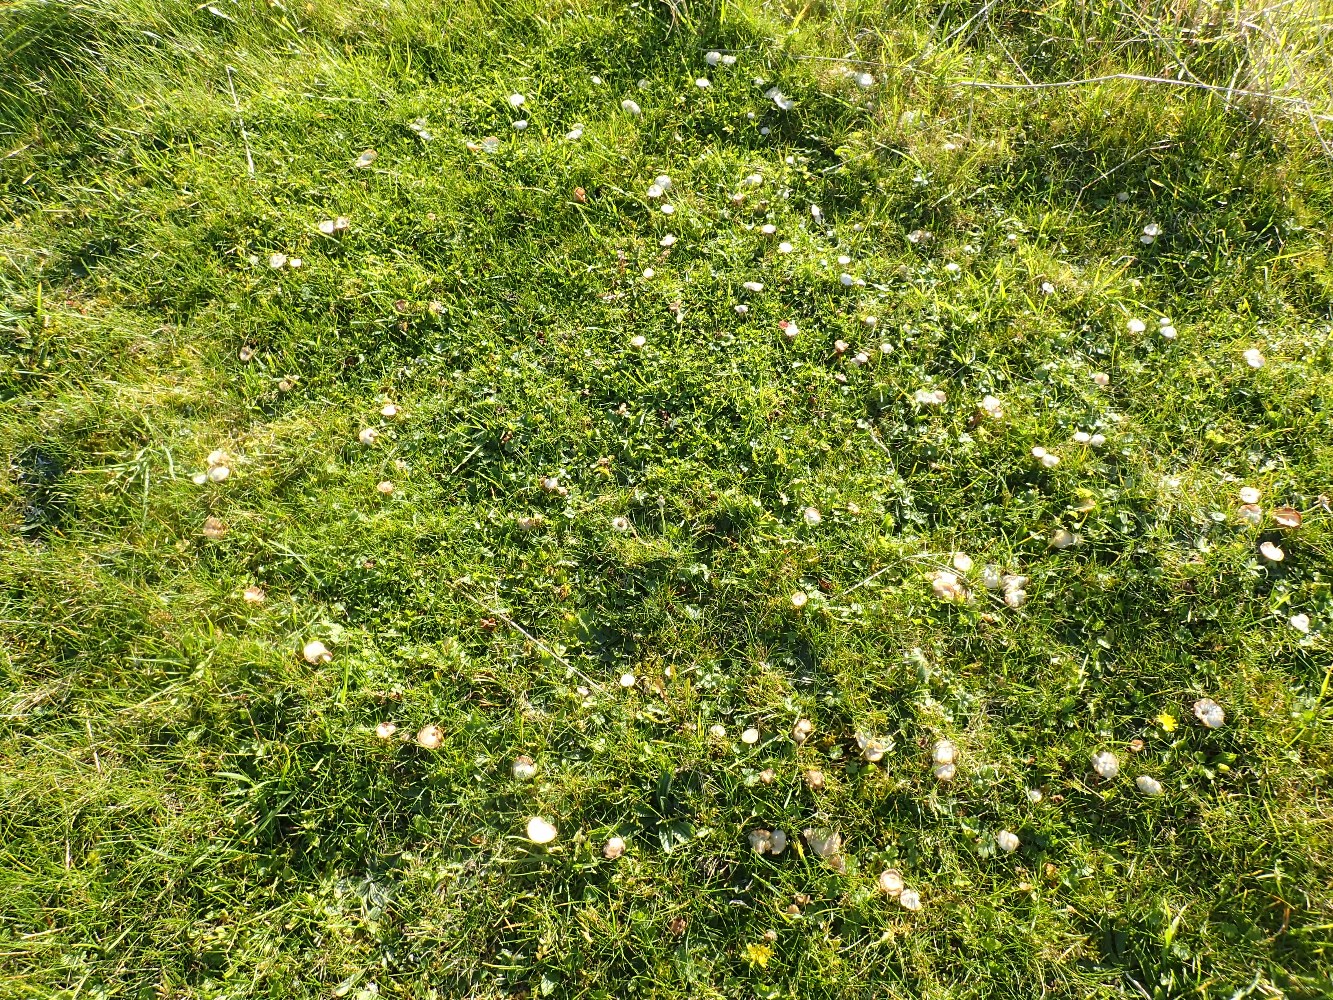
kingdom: Fungi
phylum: Basidiomycota
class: Agaricomycetes
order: Agaricales
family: Hygrophoraceae
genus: Cuphophyllus
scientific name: Cuphophyllus virgineus
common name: isabella-vokshat
